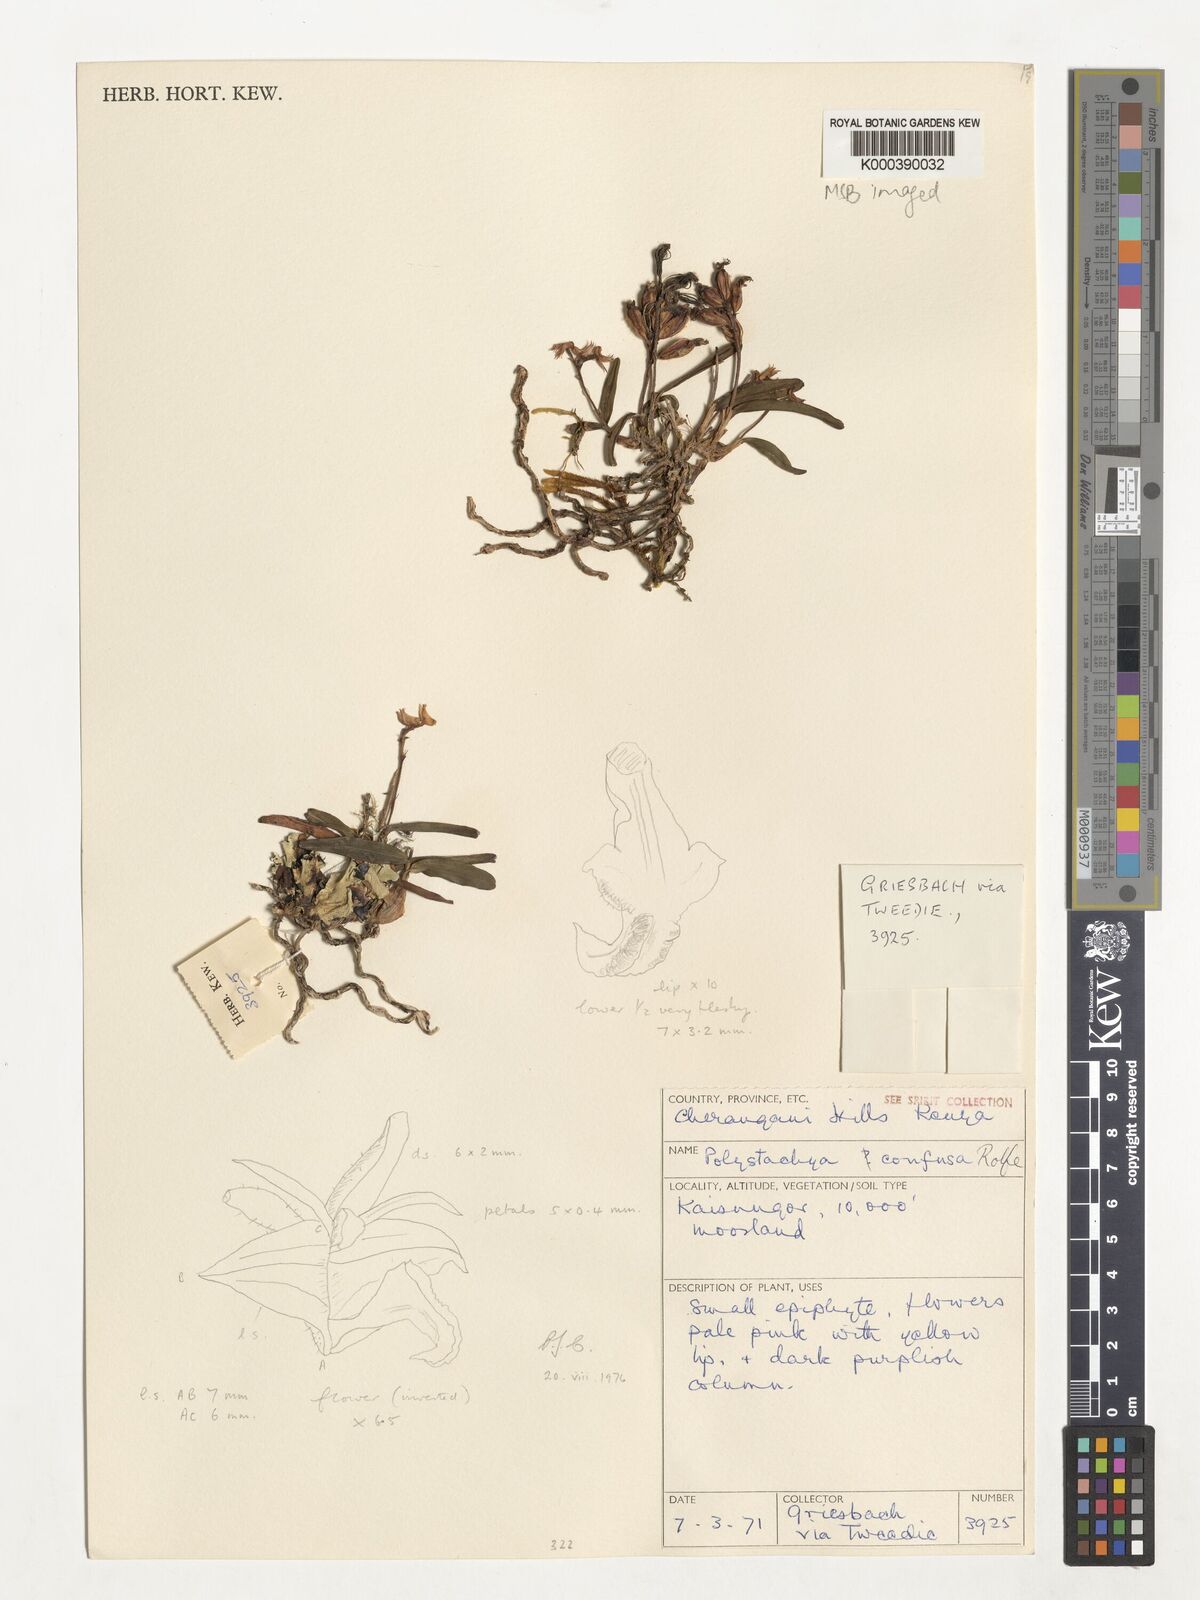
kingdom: Plantae
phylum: Tracheophyta
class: Liliopsida
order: Asparagales
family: Orchidaceae
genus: Polystachya
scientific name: Polystachya confusa
